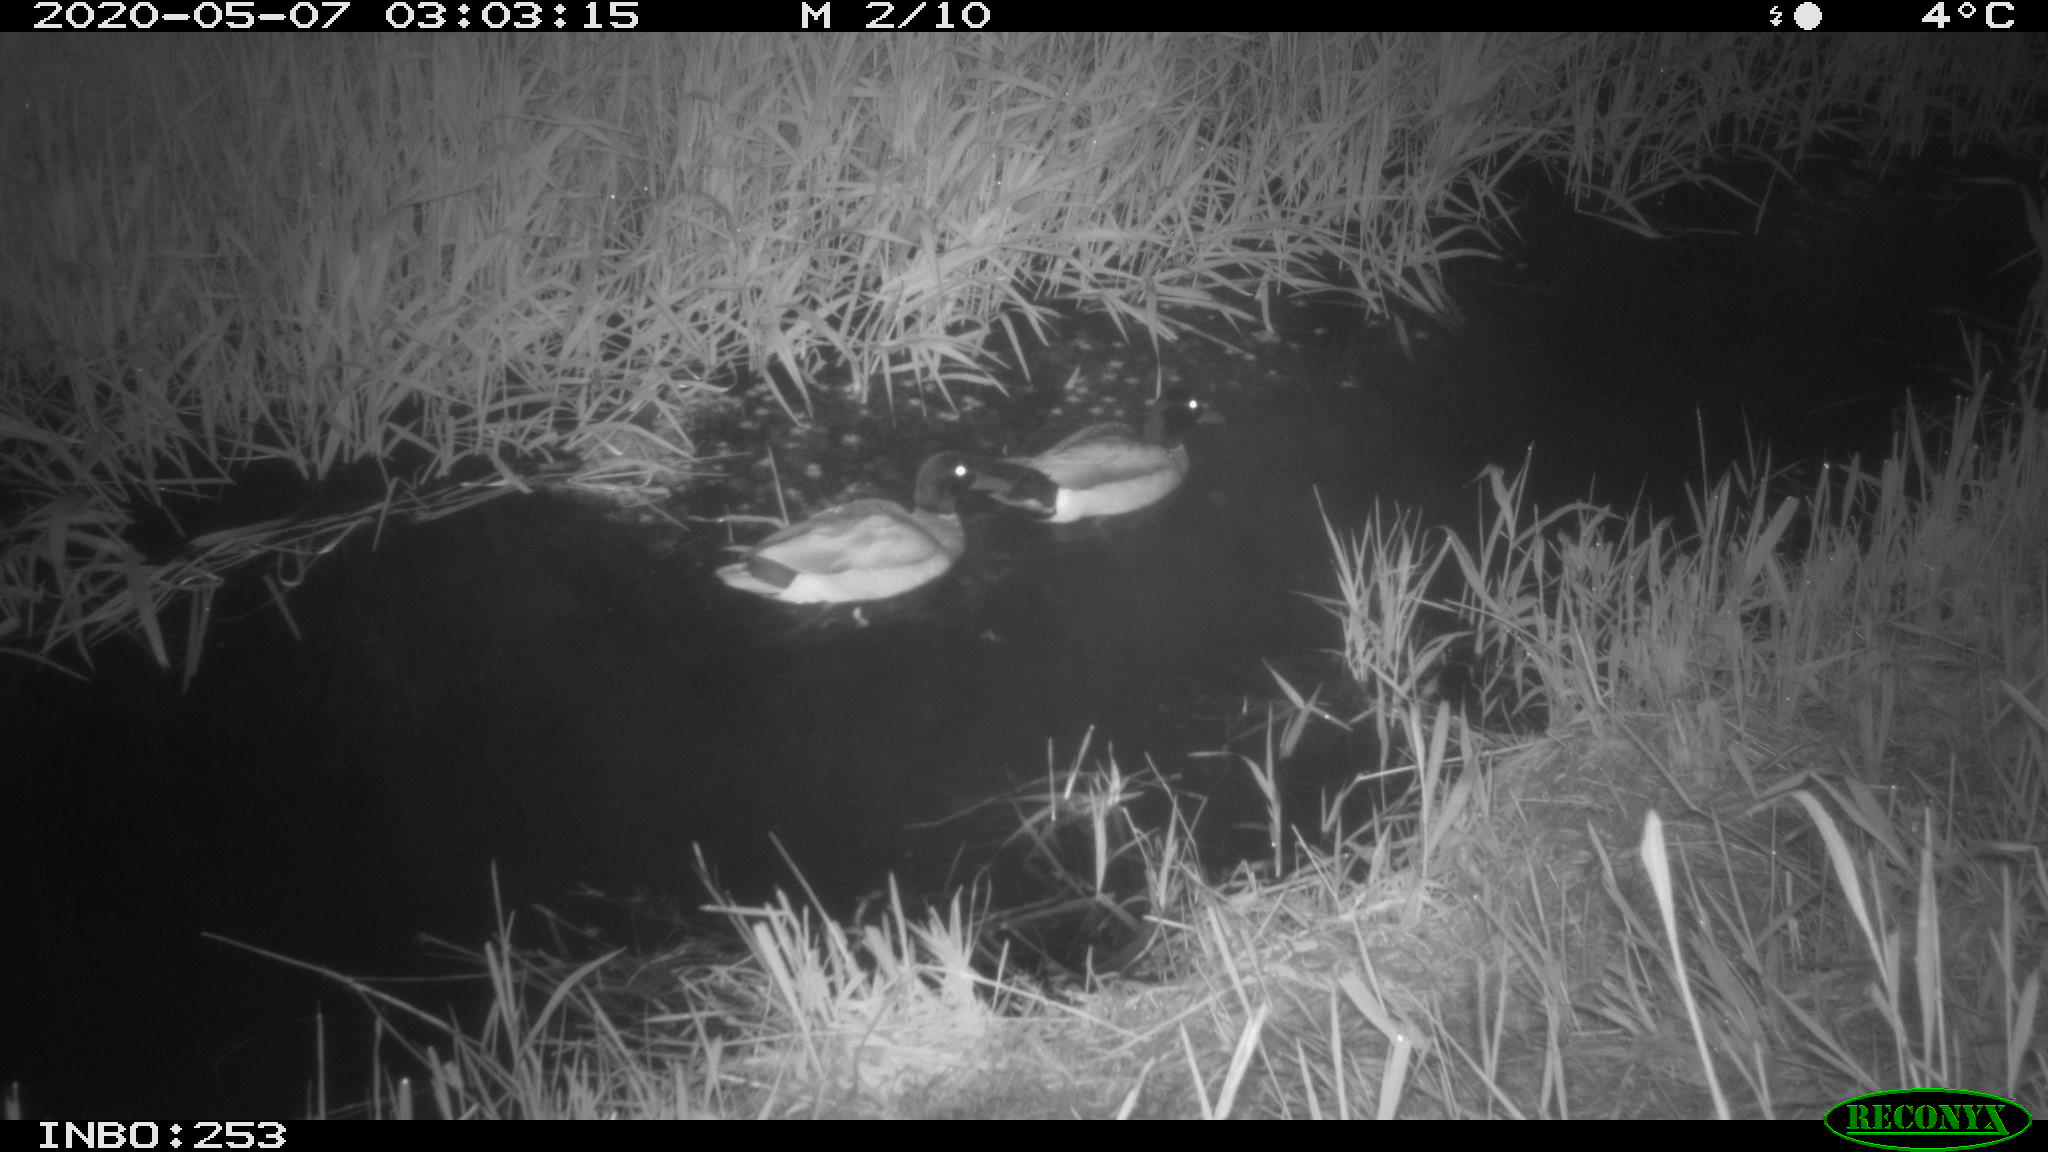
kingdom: Animalia
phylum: Chordata
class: Aves
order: Anseriformes
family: Anatidae
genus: Anas
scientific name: Anas platyrhynchos
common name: Mallard
